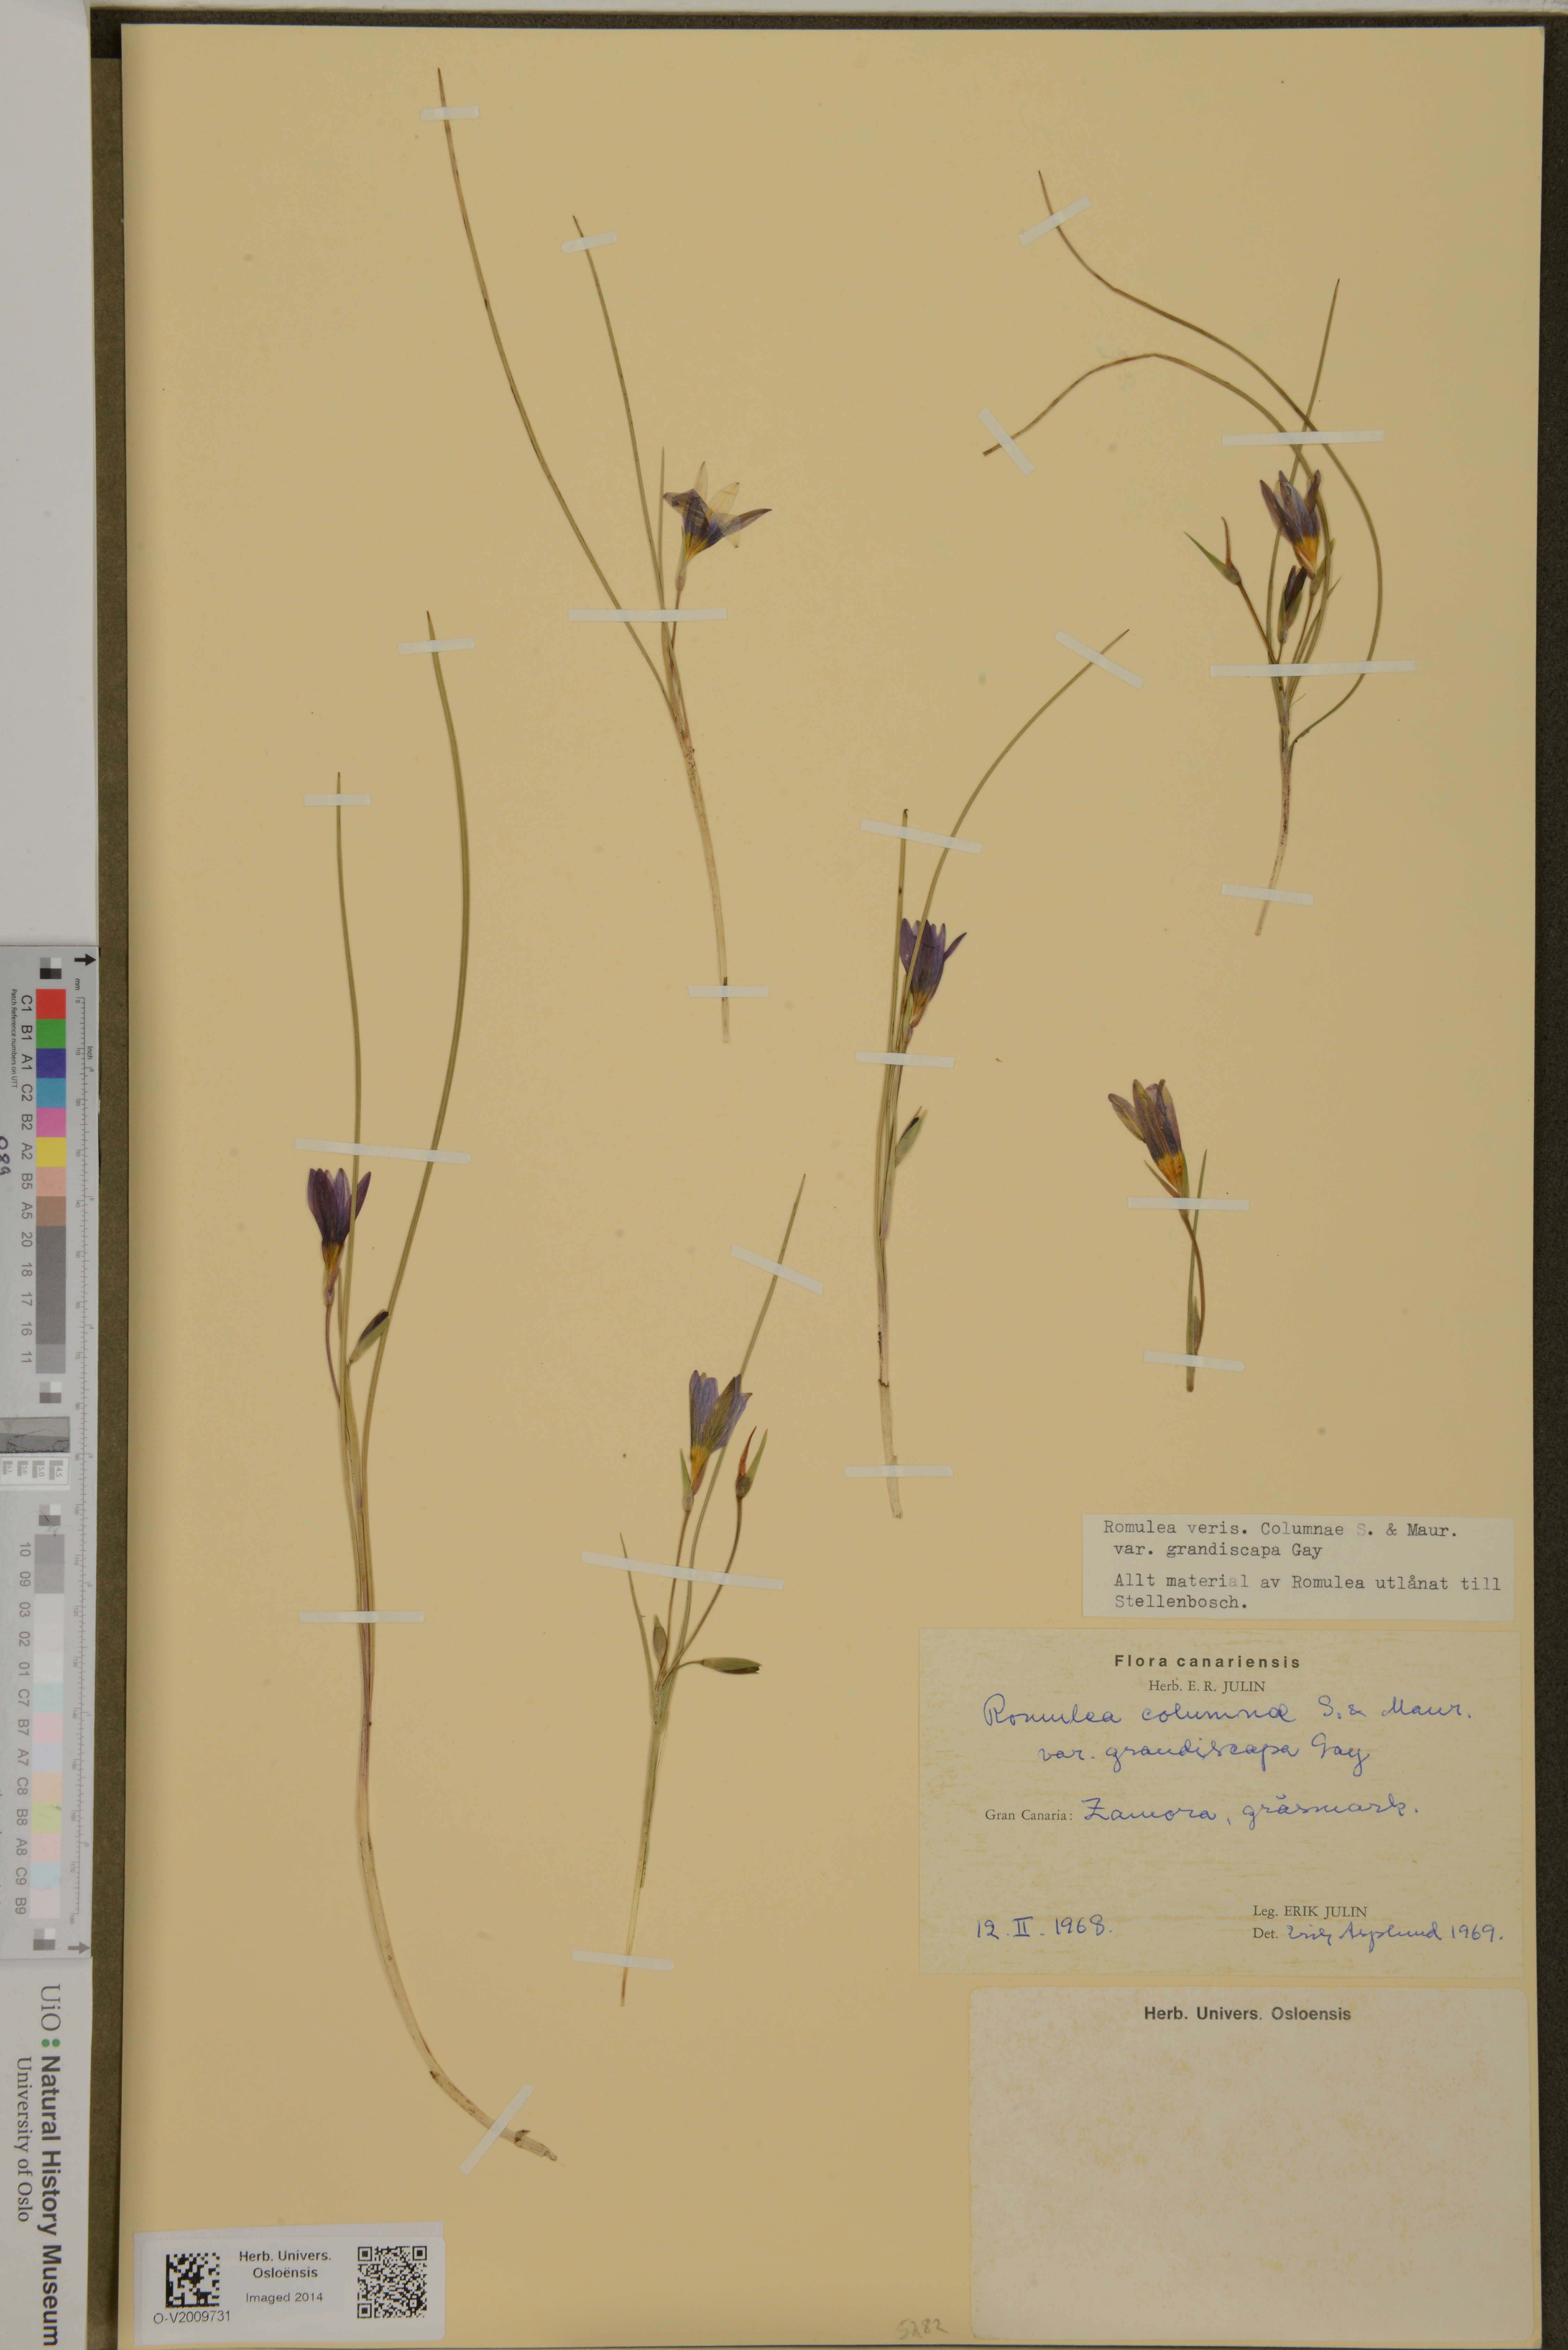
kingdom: Plantae
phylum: Tracheophyta
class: Liliopsida
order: Asparagales
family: Iridaceae
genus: Romulea
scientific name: Romulea columnae
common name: Sand-crocus
